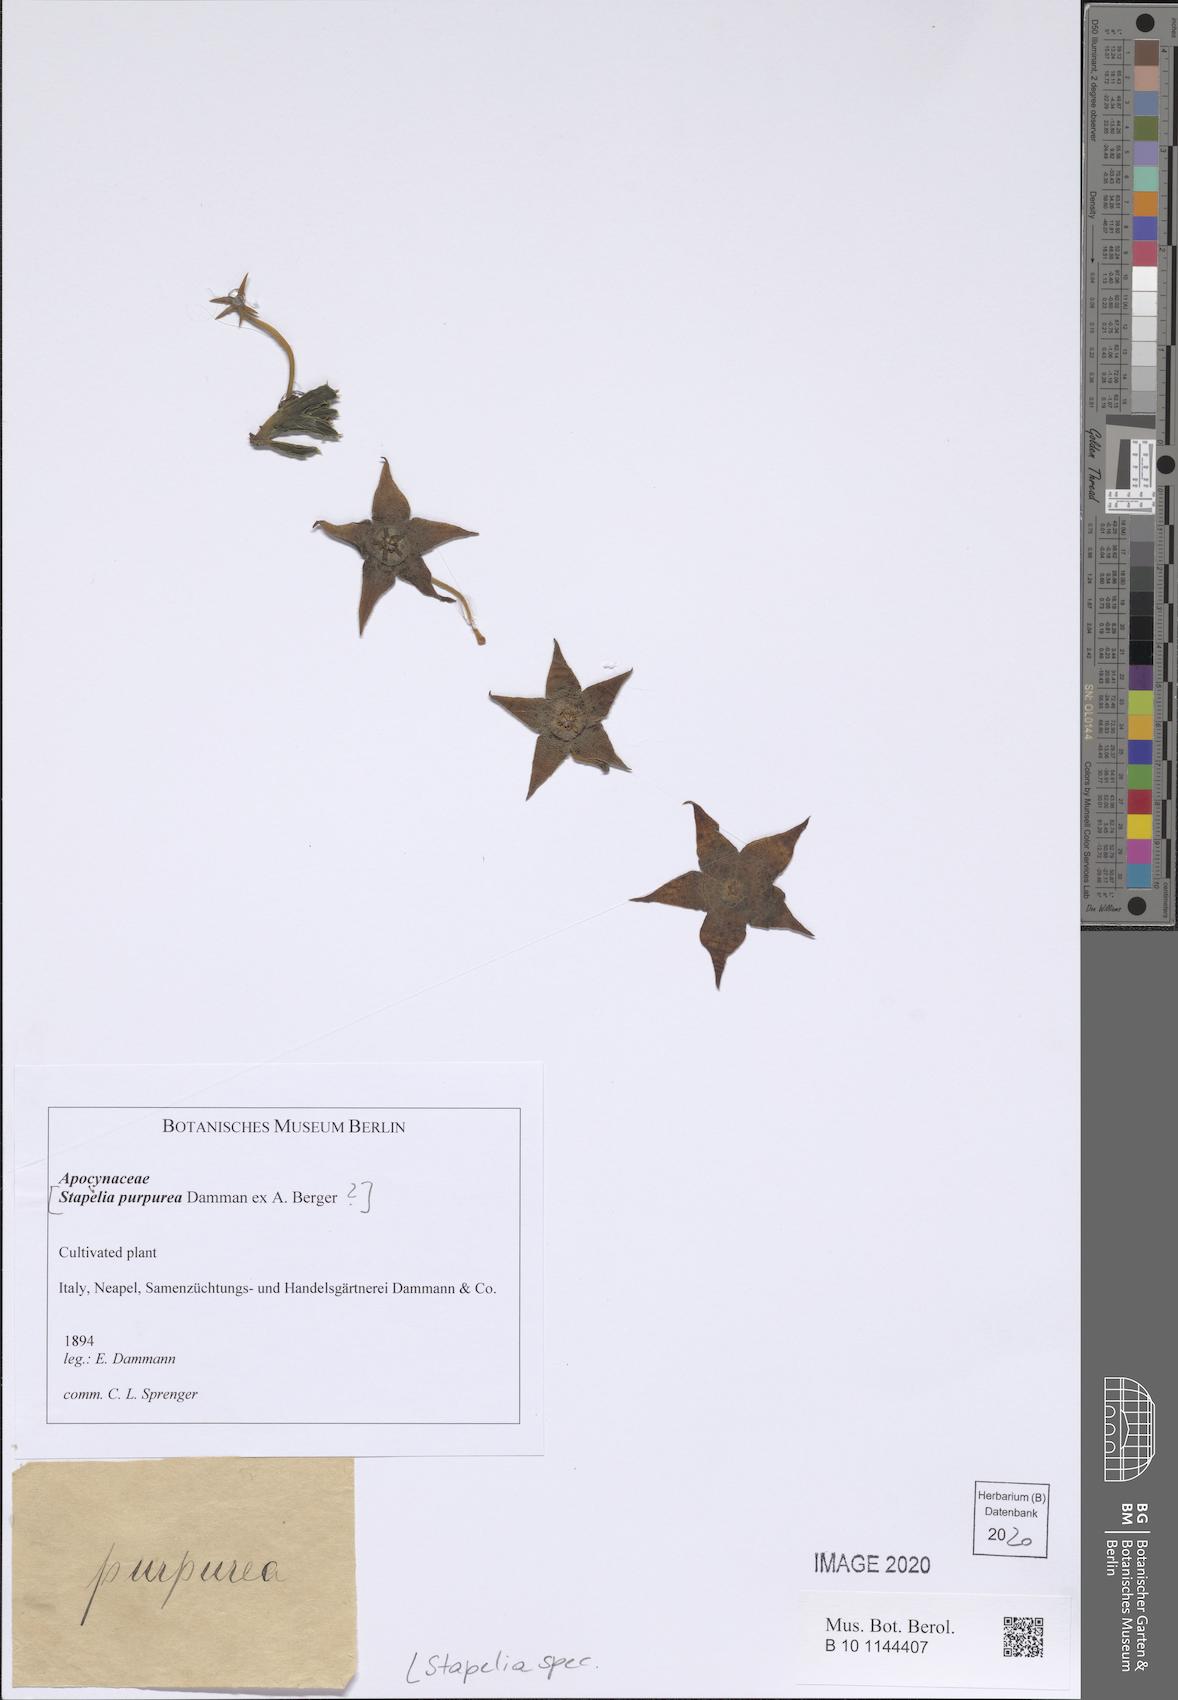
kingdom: Plantae
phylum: Tracheophyta
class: Magnoliopsida
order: Gentianales
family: Apocynaceae
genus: Stapelia
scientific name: Stapelia
